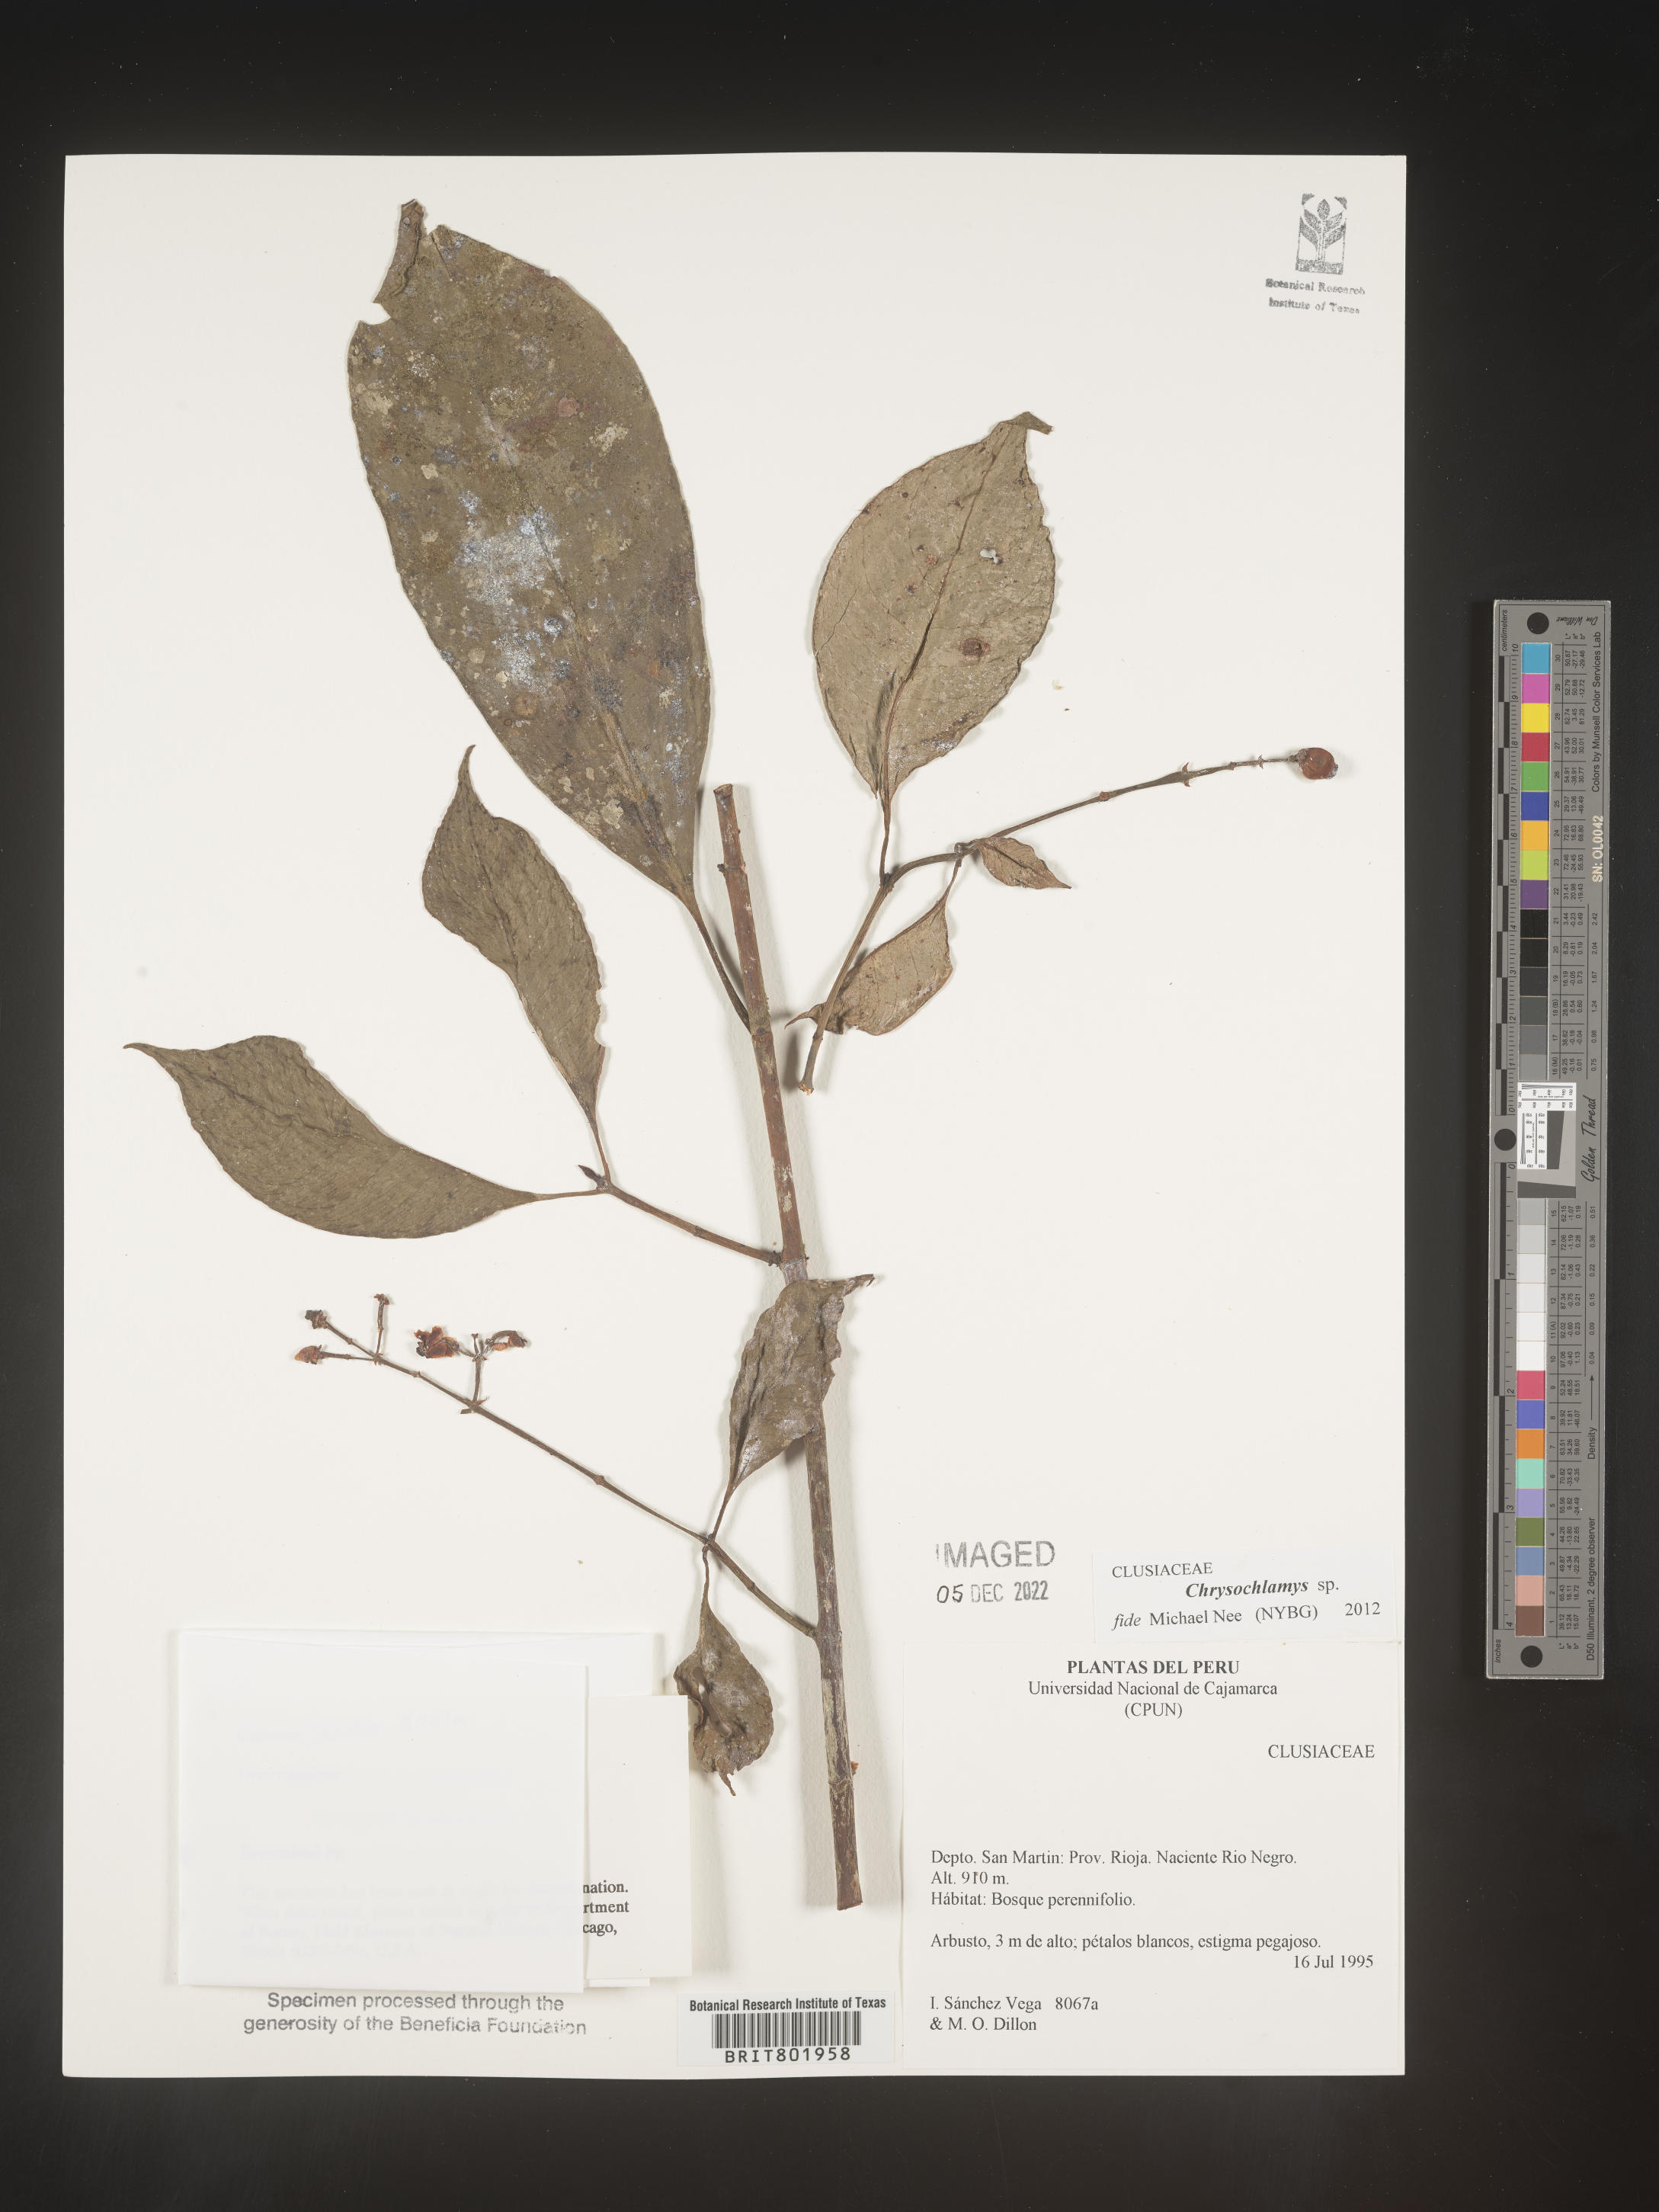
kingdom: Plantae
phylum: Tracheophyta
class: Magnoliopsida
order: Malpighiales
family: Clusiaceae
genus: Chrysochlamys
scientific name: Chrysochlamys
